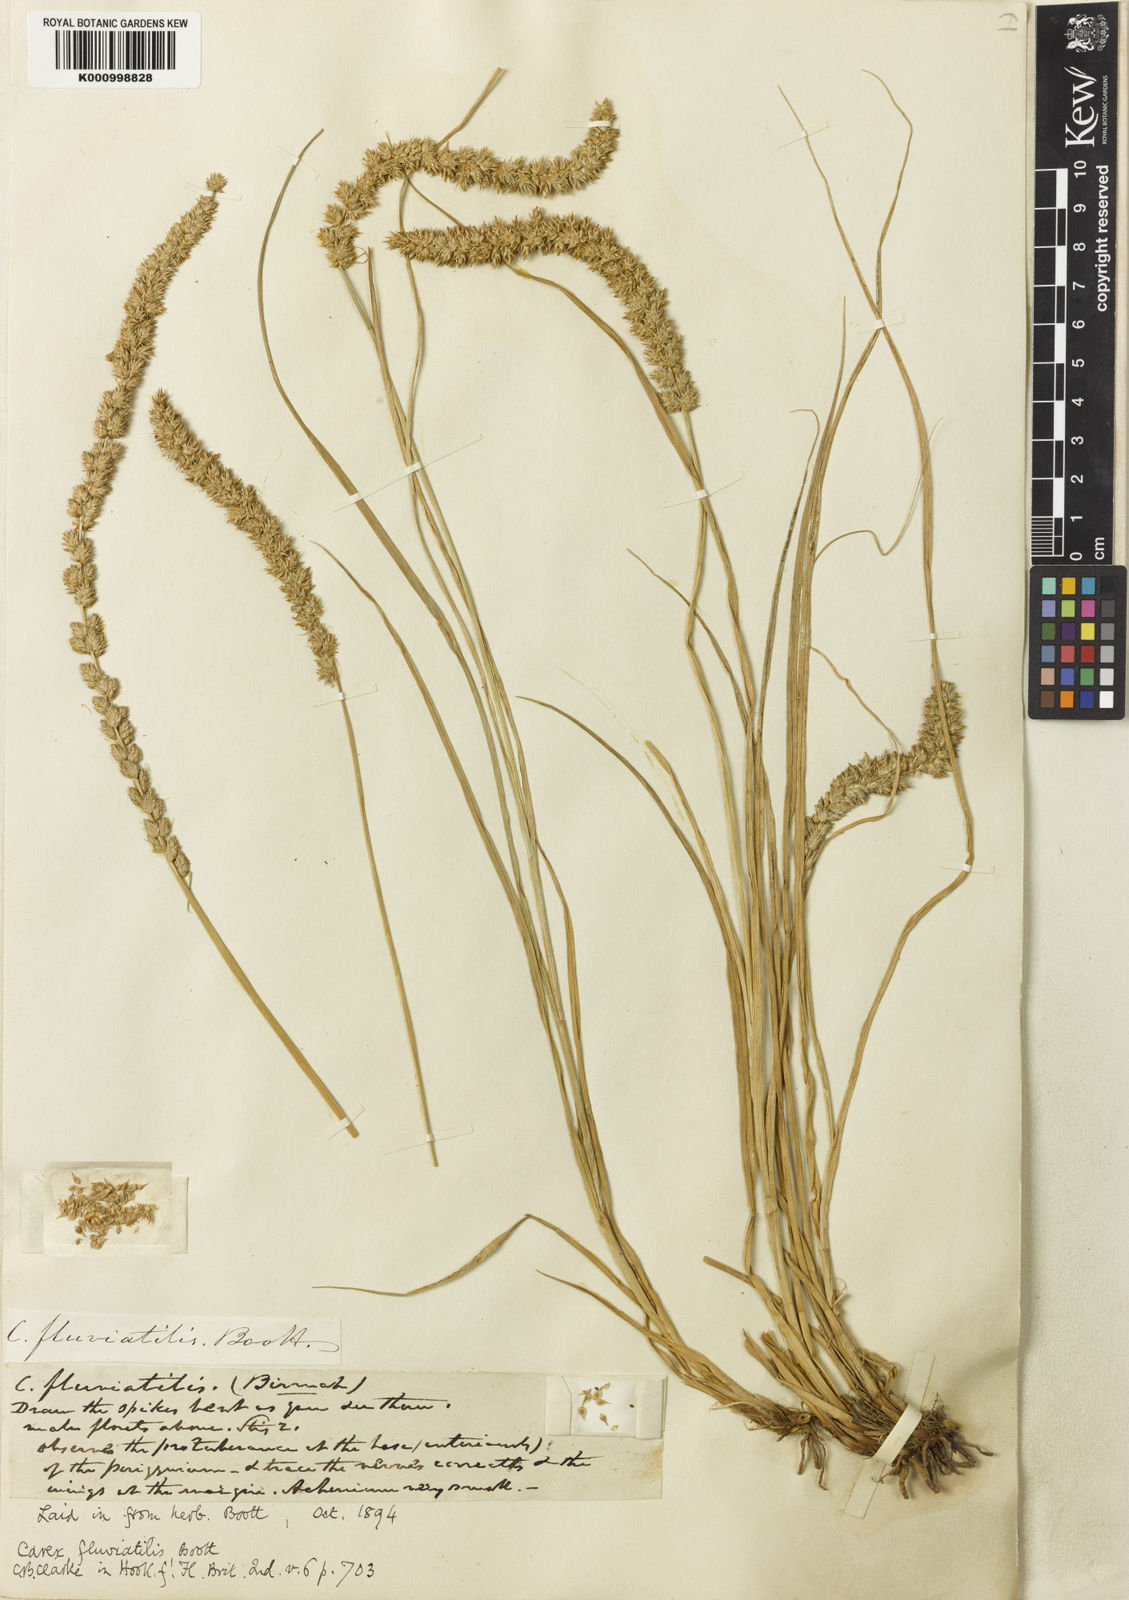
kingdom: Plantae
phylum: Tracheophyta
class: Liliopsida
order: Poales
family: Cyperaceae
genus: Carex
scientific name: Carex fluviatilis
